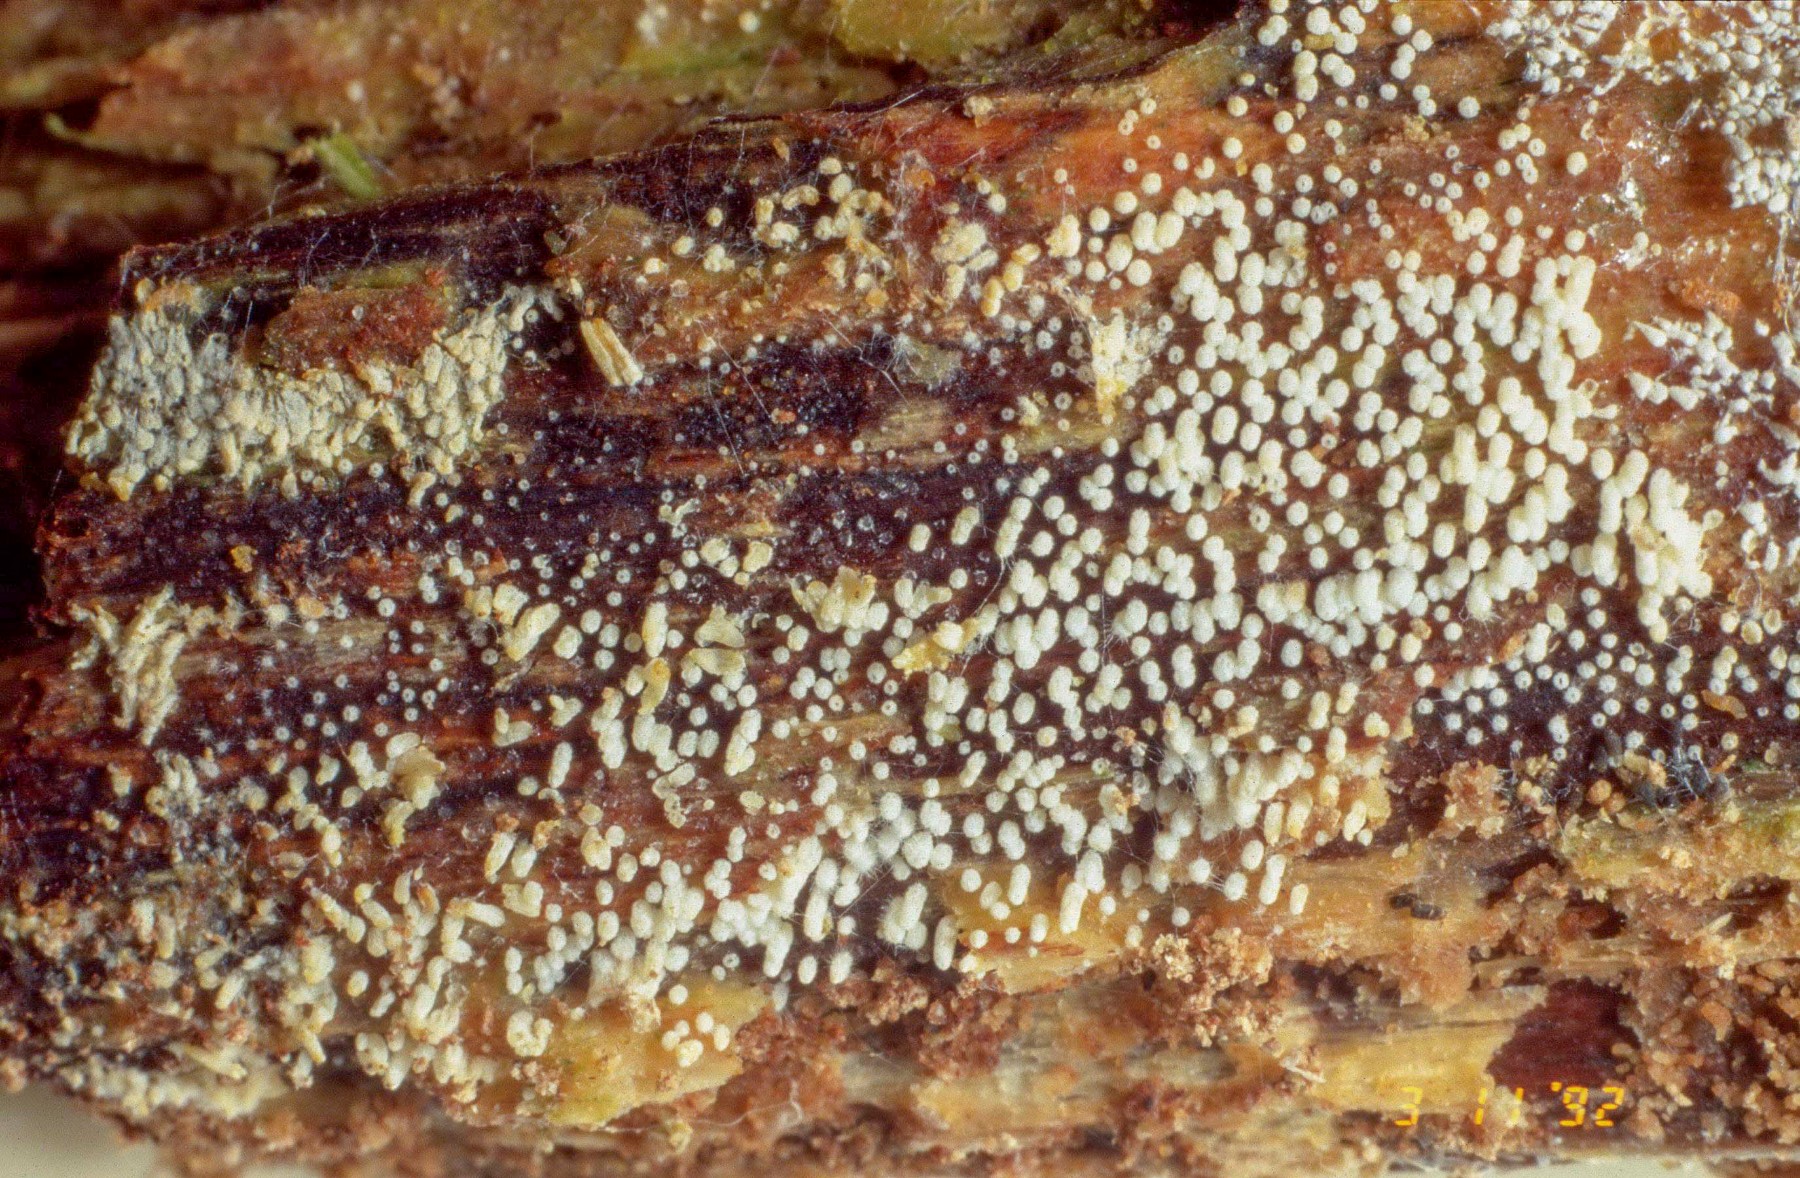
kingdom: Fungi
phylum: Basidiomycota
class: Agaricomycetes
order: Agaricales
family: Marasmiaceae
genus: Henningsomyces
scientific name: Henningsomyces puber
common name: dunet hængerør
